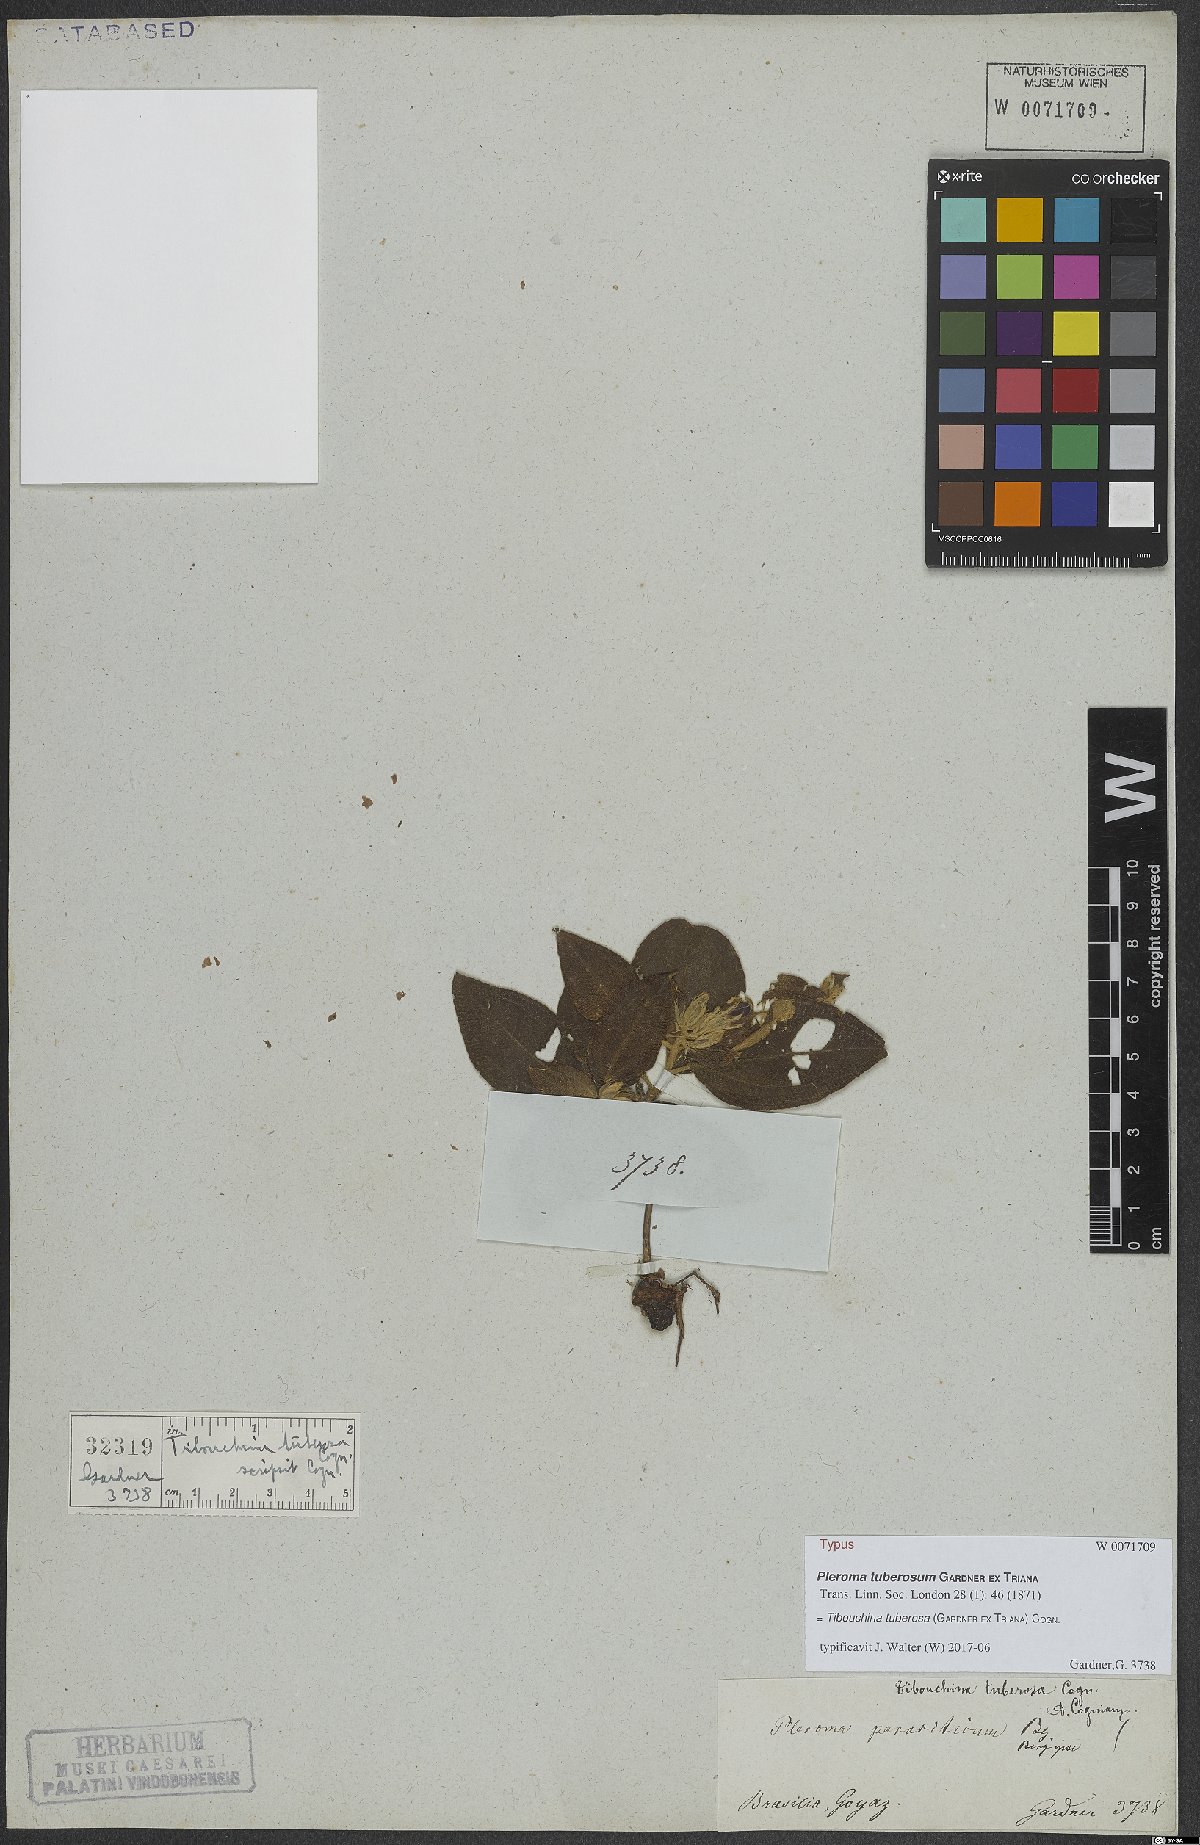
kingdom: Plantae
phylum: Tracheophyta
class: Magnoliopsida
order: Myrtales
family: Melastomataceae
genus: Pleroma
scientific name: Pleroma tuberosum
